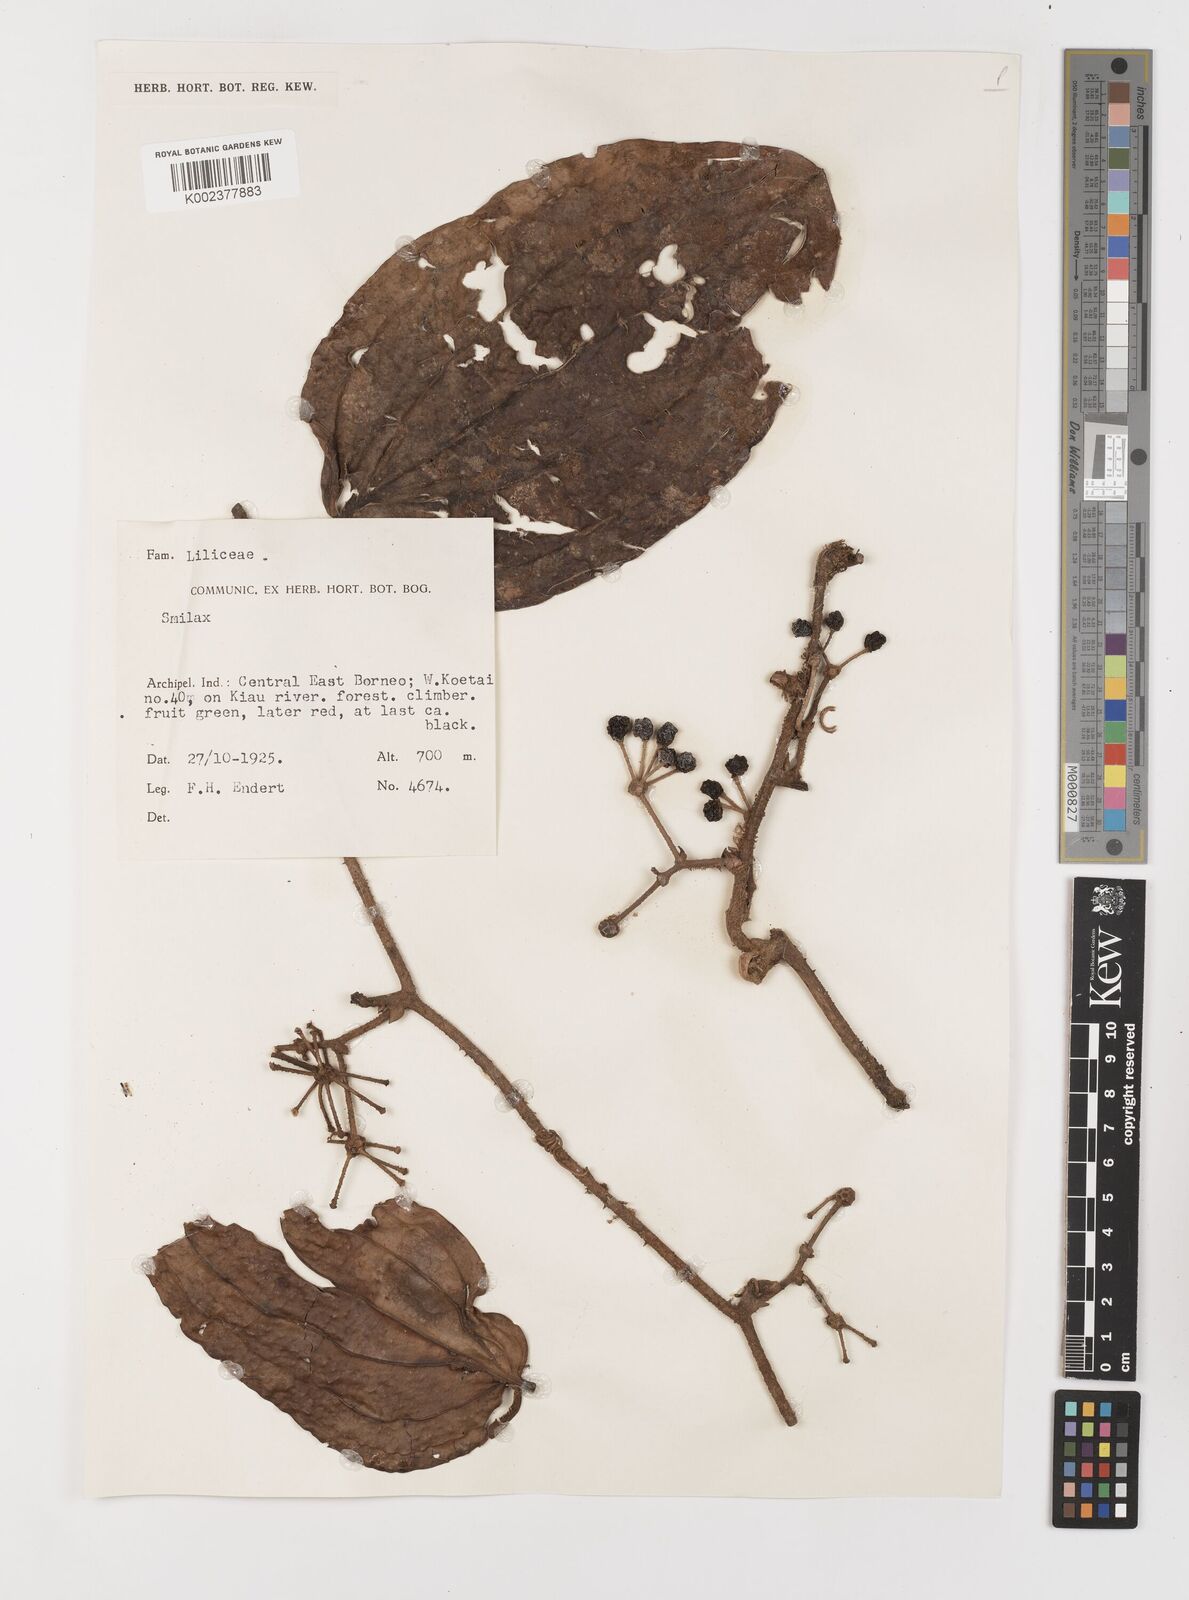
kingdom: Plantae
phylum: Tracheophyta
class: Liliopsida
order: Liliales
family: Smilacaceae
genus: Smilax
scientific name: Smilax
